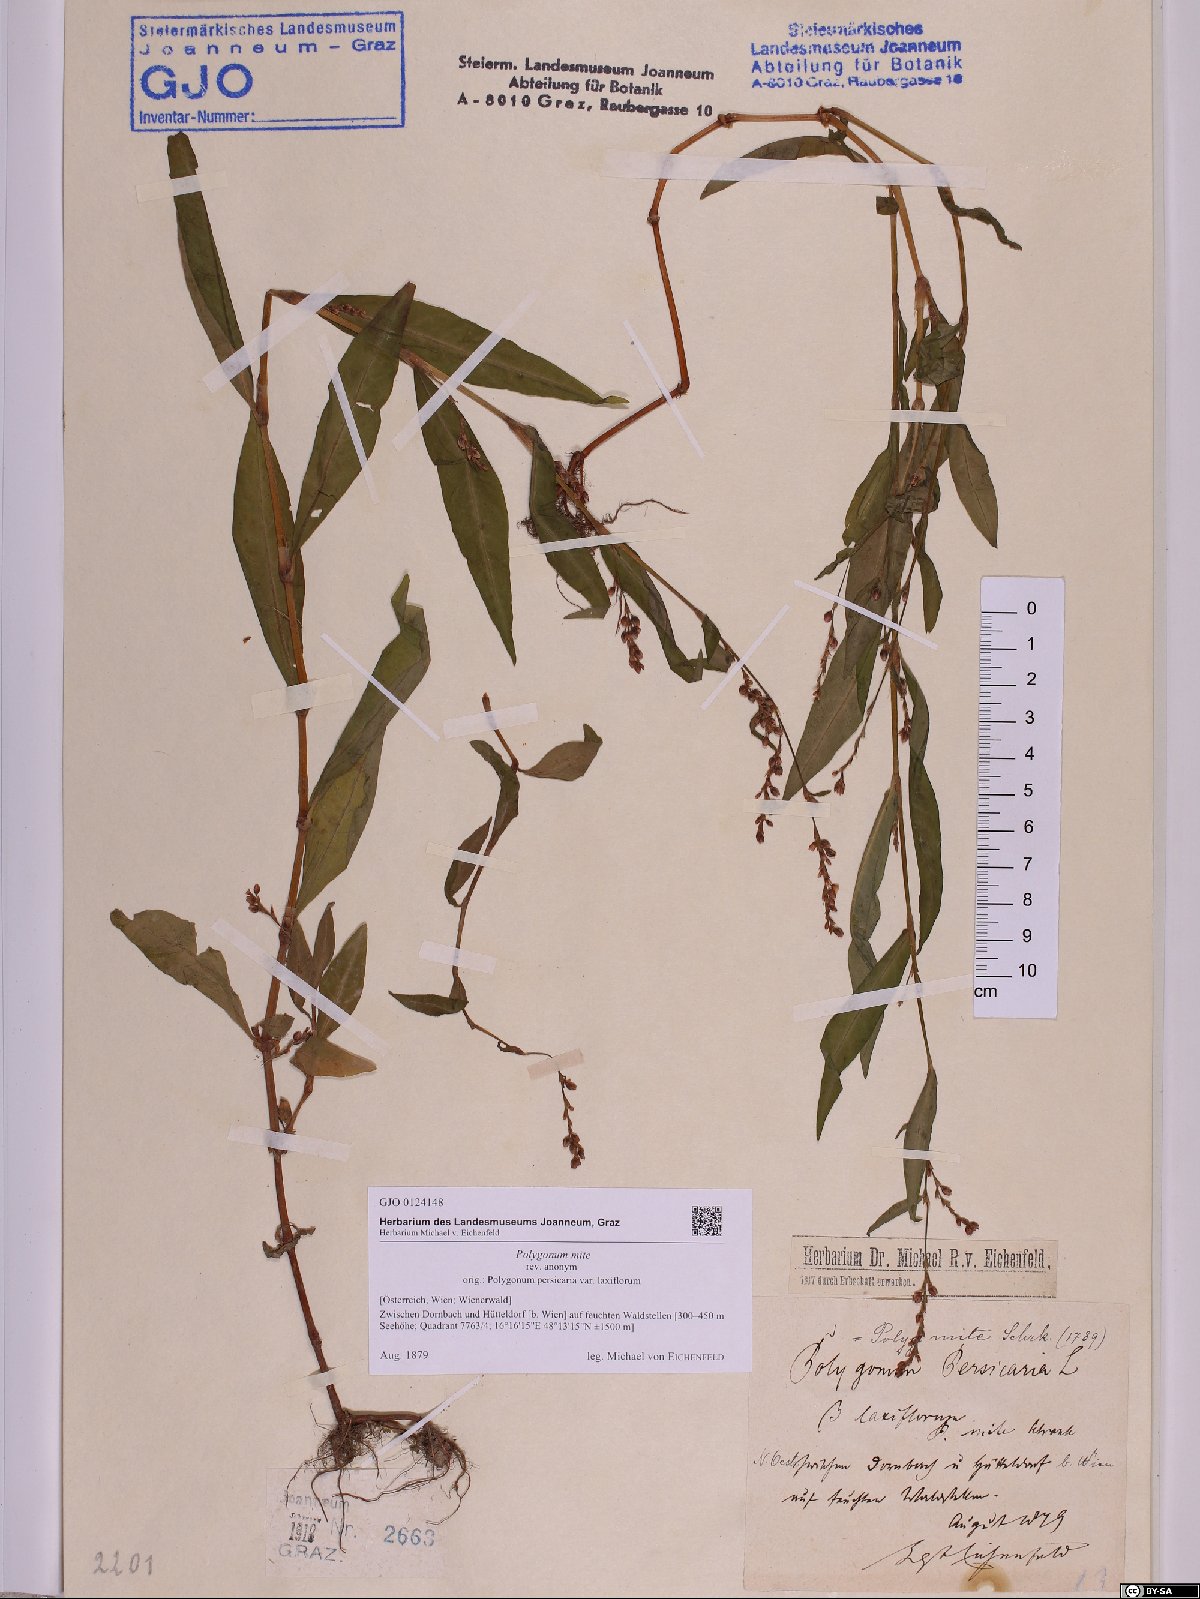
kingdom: Plantae
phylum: Tracheophyta
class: Magnoliopsida
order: Caryophyllales
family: Polygonaceae
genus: Persicaria
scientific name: Persicaria mitis
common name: Tasteless water-pepper
